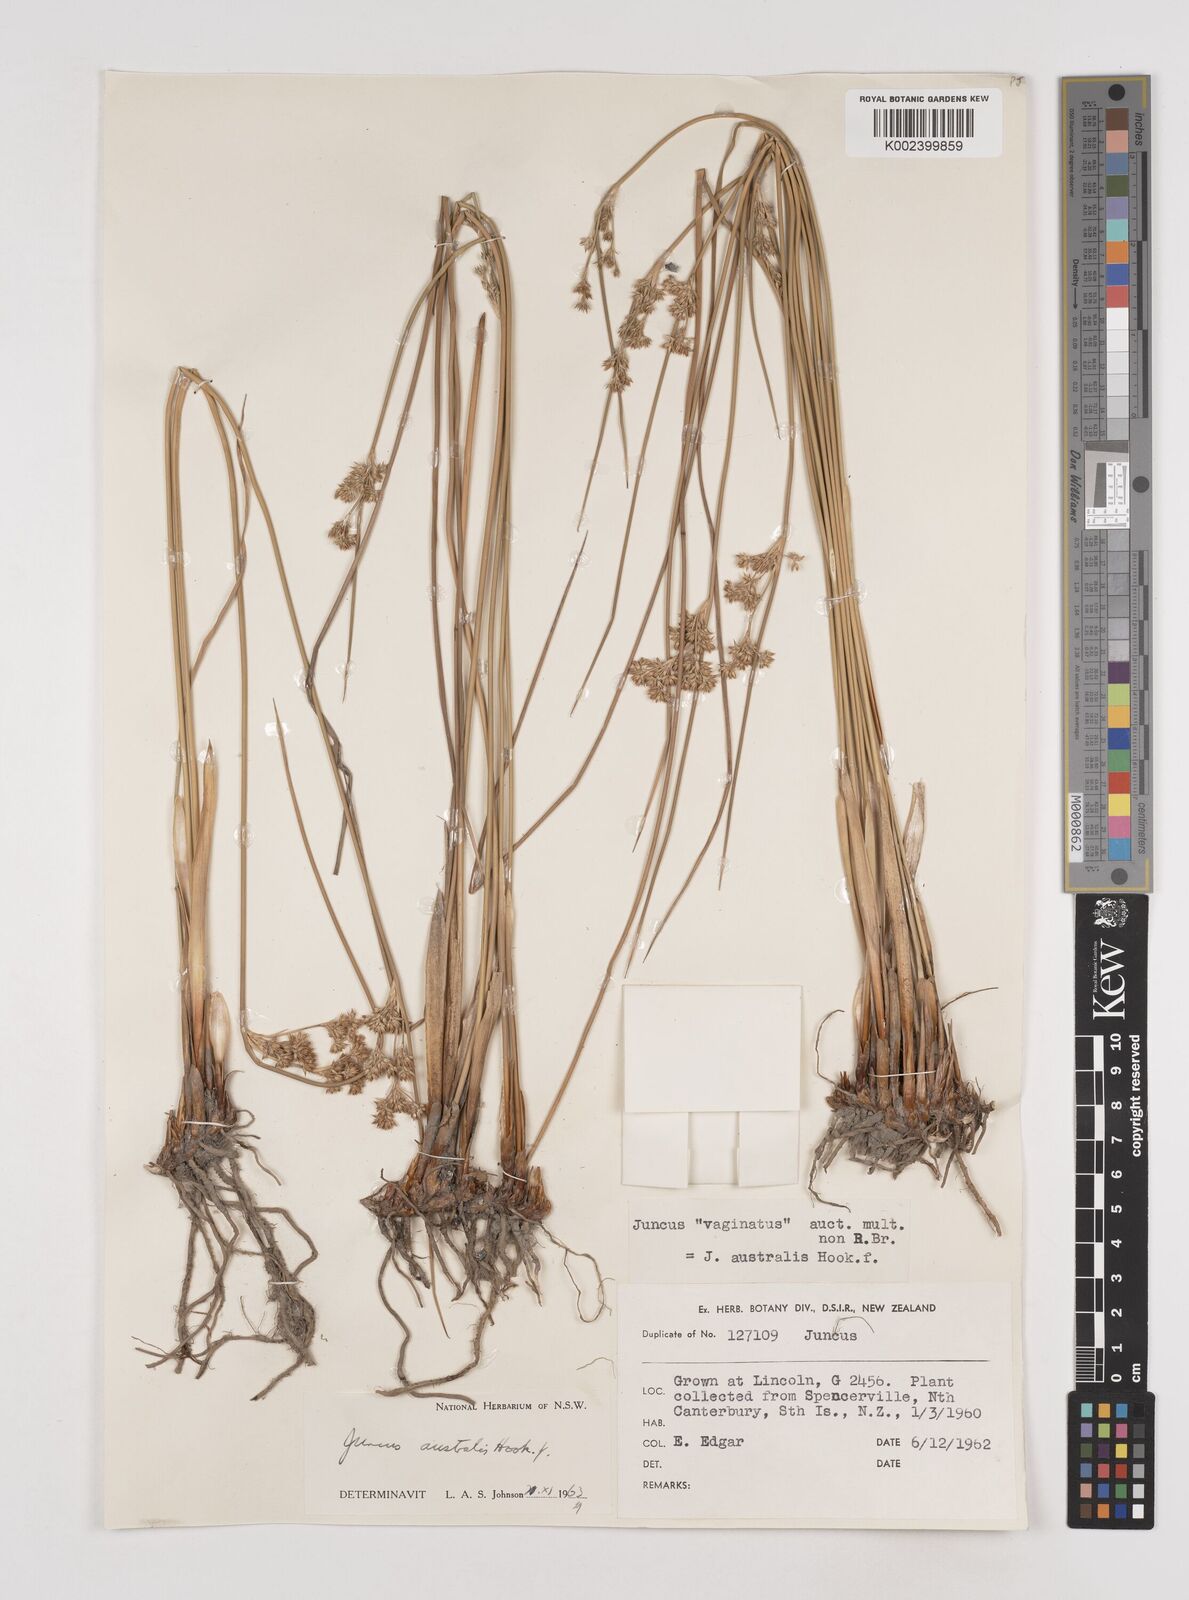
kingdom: Plantae
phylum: Tracheophyta
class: Liliopsida
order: Poales
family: Juncaceae
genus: Juncus
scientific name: Juncus australis
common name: Austral rush
